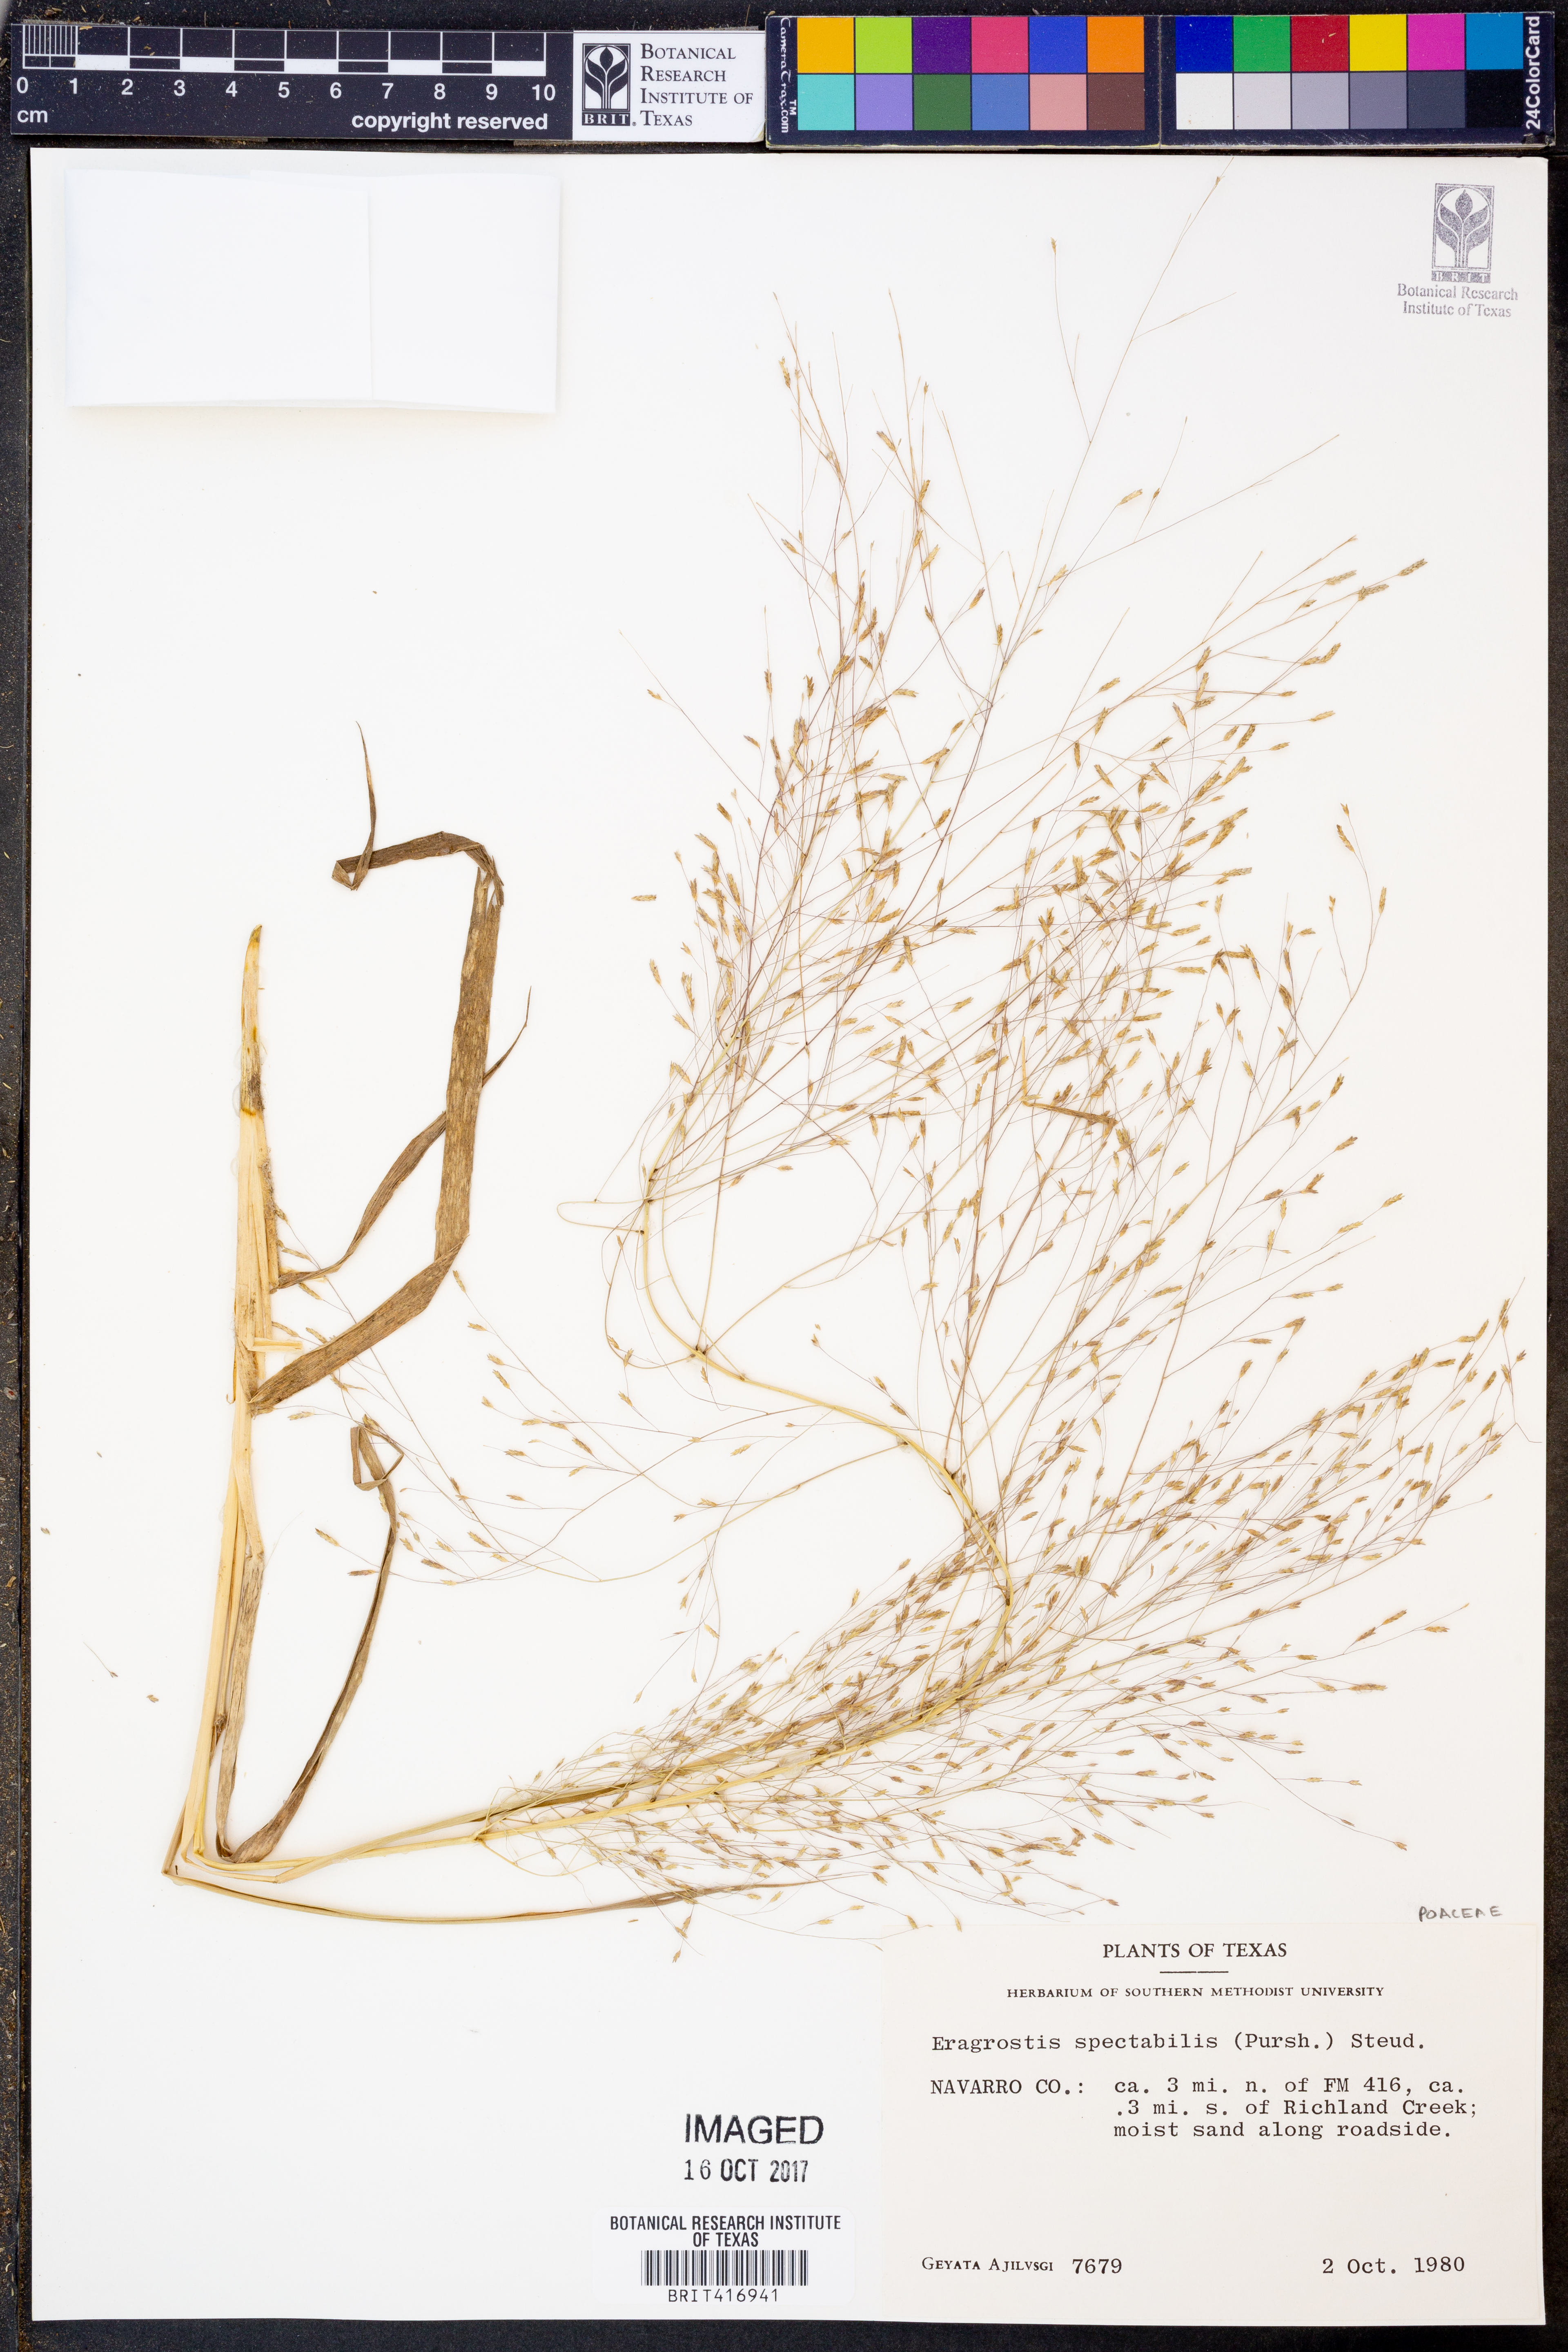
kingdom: Plantae
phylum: Tracheophyta
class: Liliopsida
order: Poales
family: Poaceae
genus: Eragrostis
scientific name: Eragrostis spectabilis
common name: Petticoat-climber
